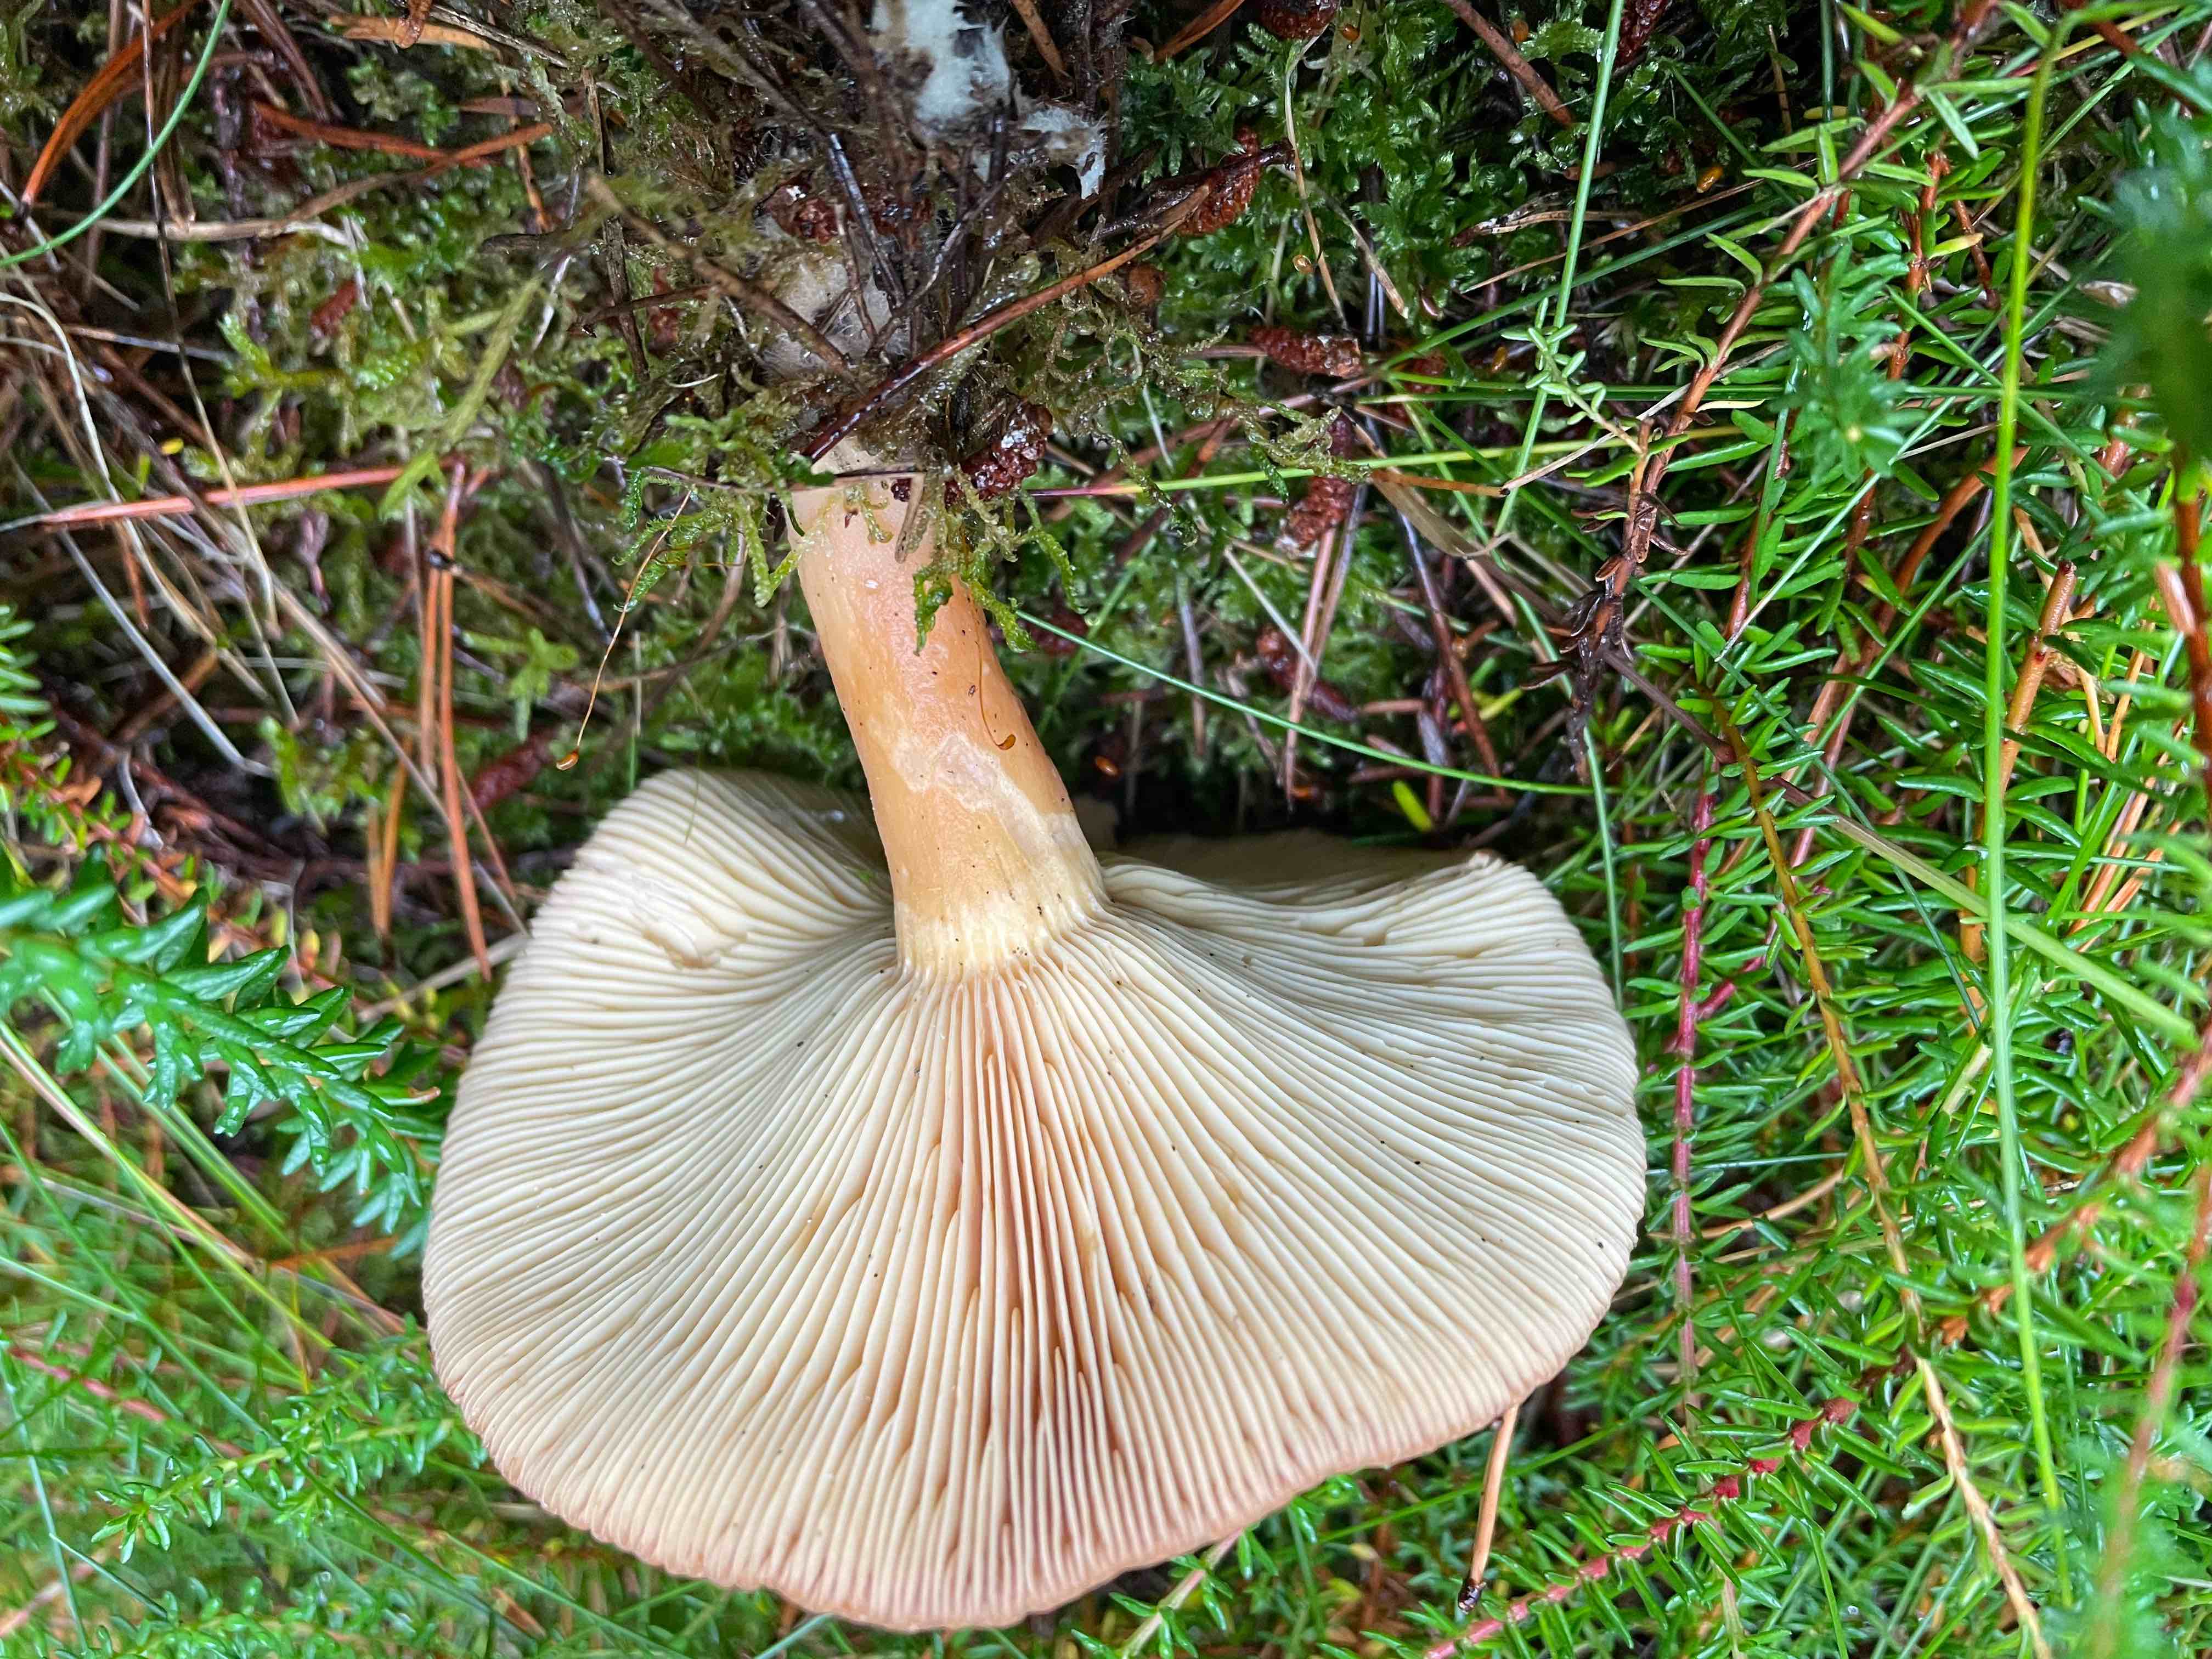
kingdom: Fungi
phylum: Basidiomycota
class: Agaricomycetes
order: Russulales
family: Russulaceae
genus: Lactarius
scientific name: Lactarius helvus
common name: mose-mælkehat
